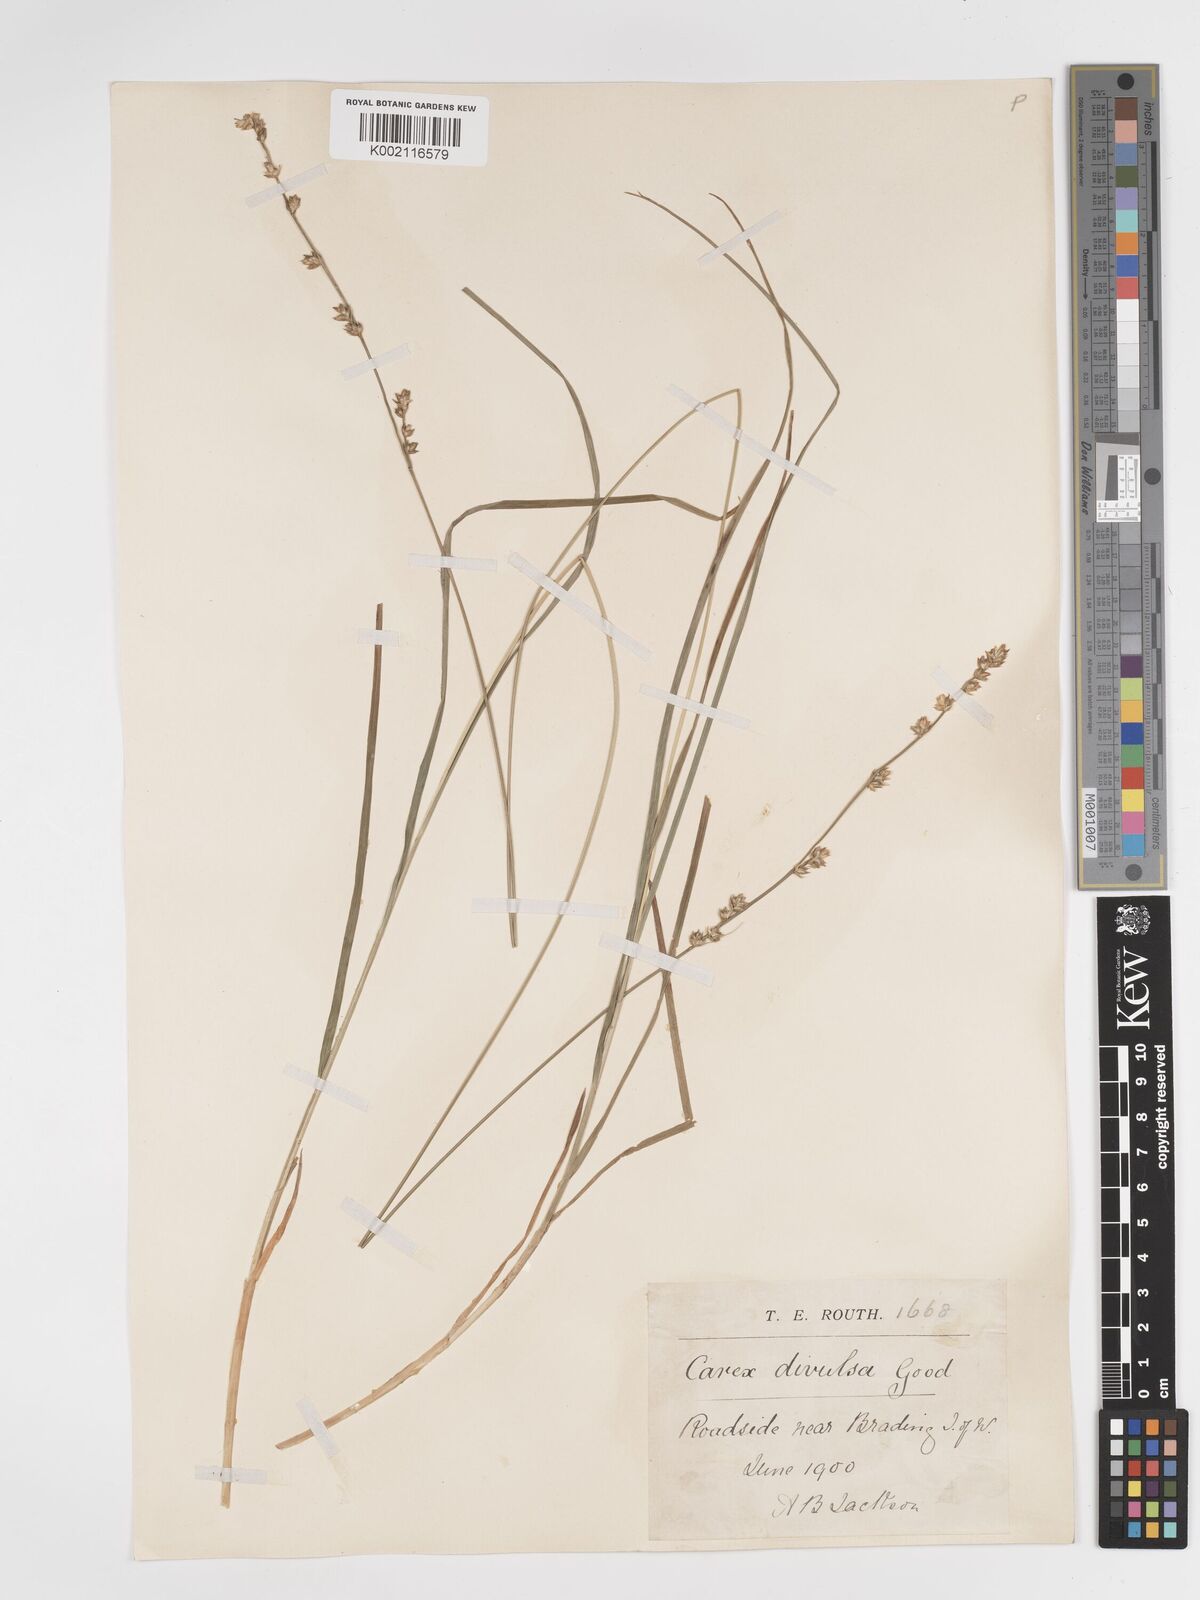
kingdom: Plantae
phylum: Tracheophyta
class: Liliopsida
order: Poales
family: Cyperaceae
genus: Carex
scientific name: Carex divulsa
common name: Grassland sedge
